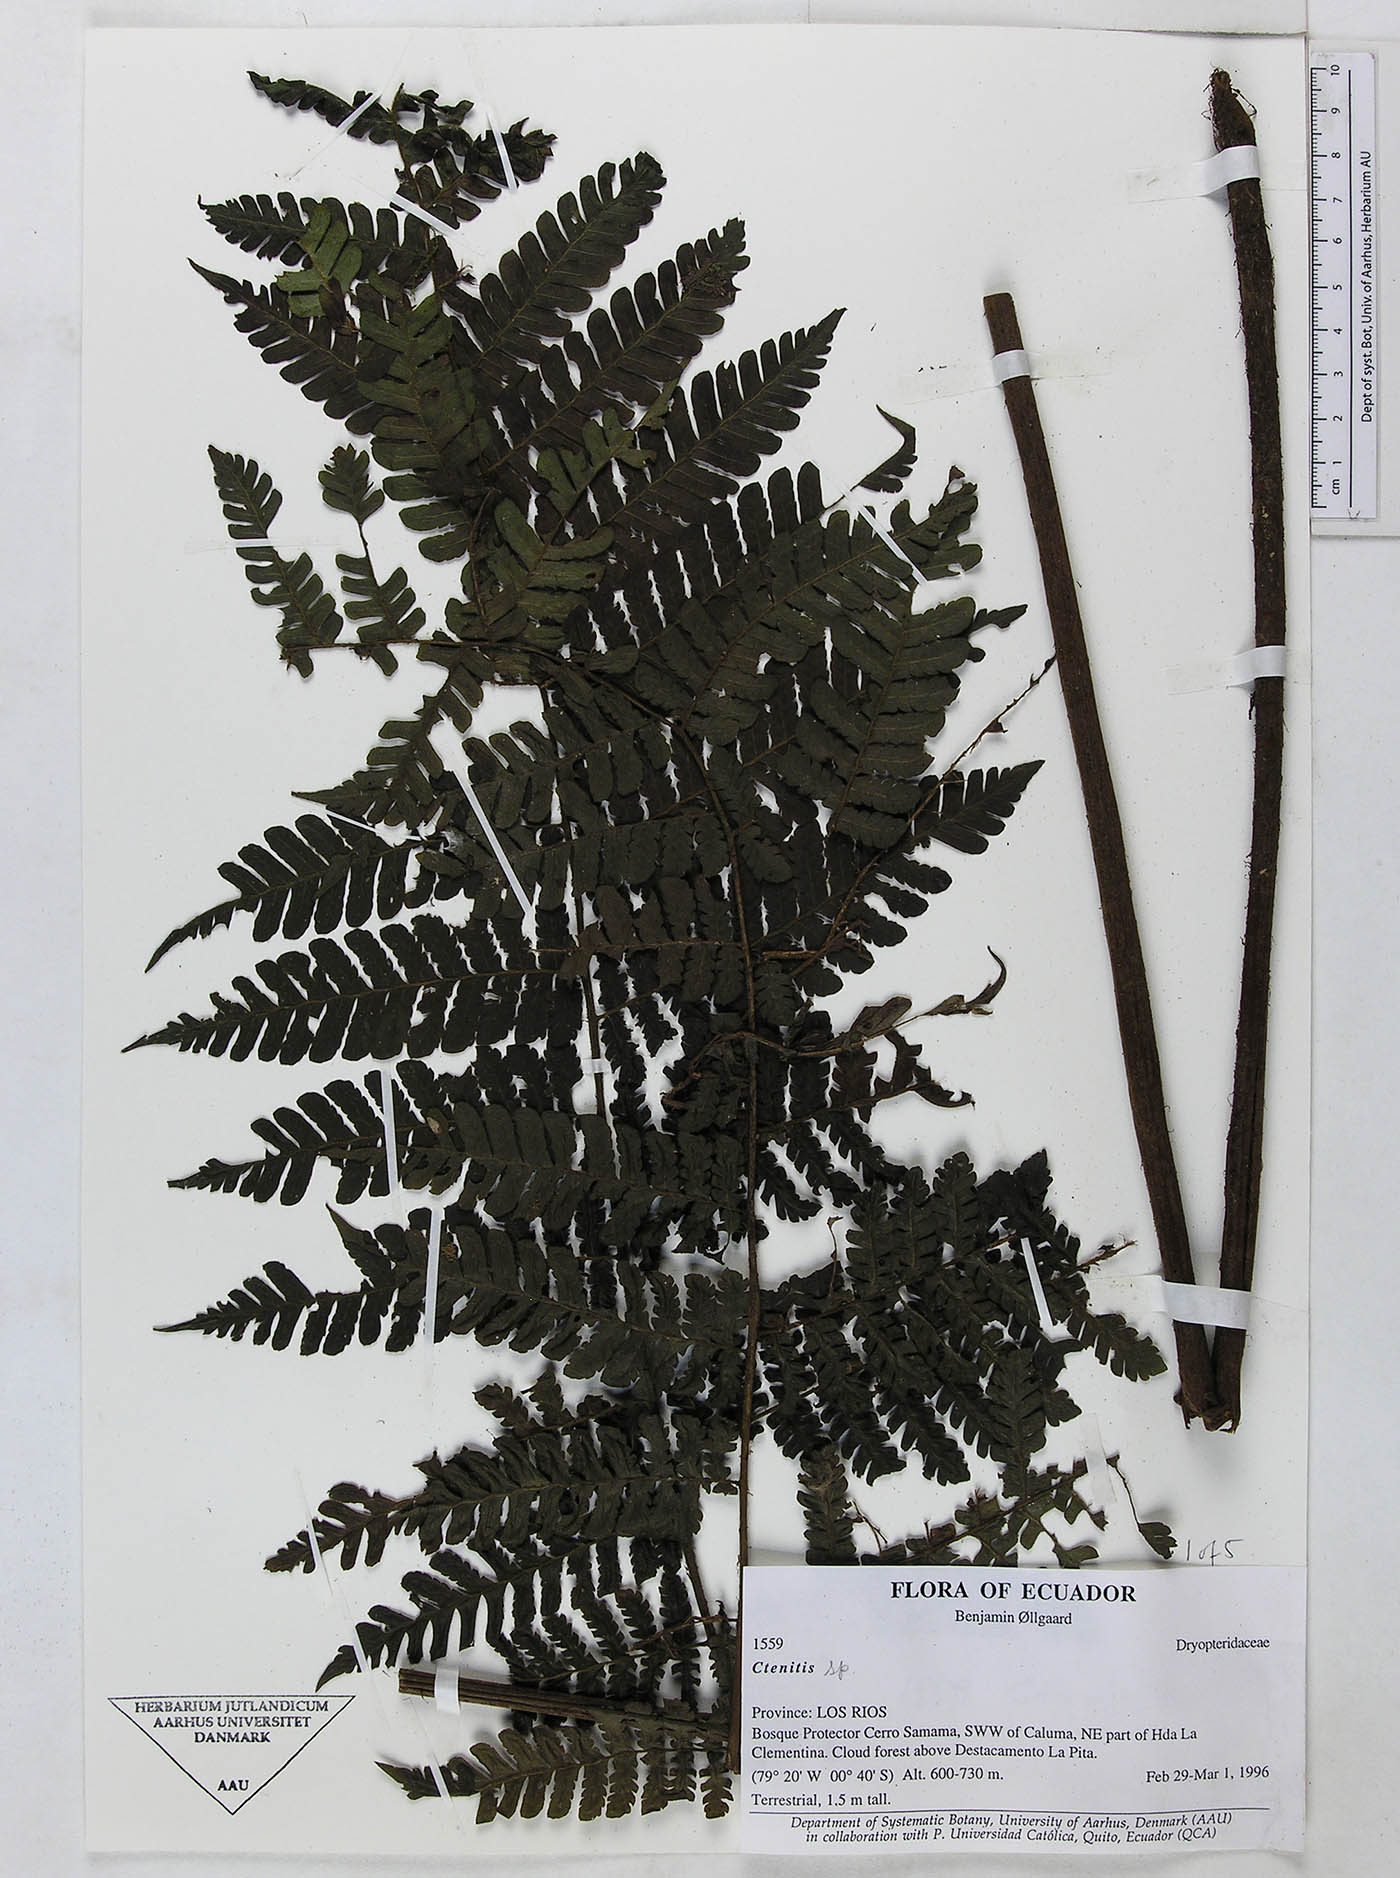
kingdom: Plantae
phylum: Tracheophyta
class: Polypodiopsida
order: Polypodiales
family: Dryopteridaceae
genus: Megalastrum
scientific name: Megalastrum vastum
